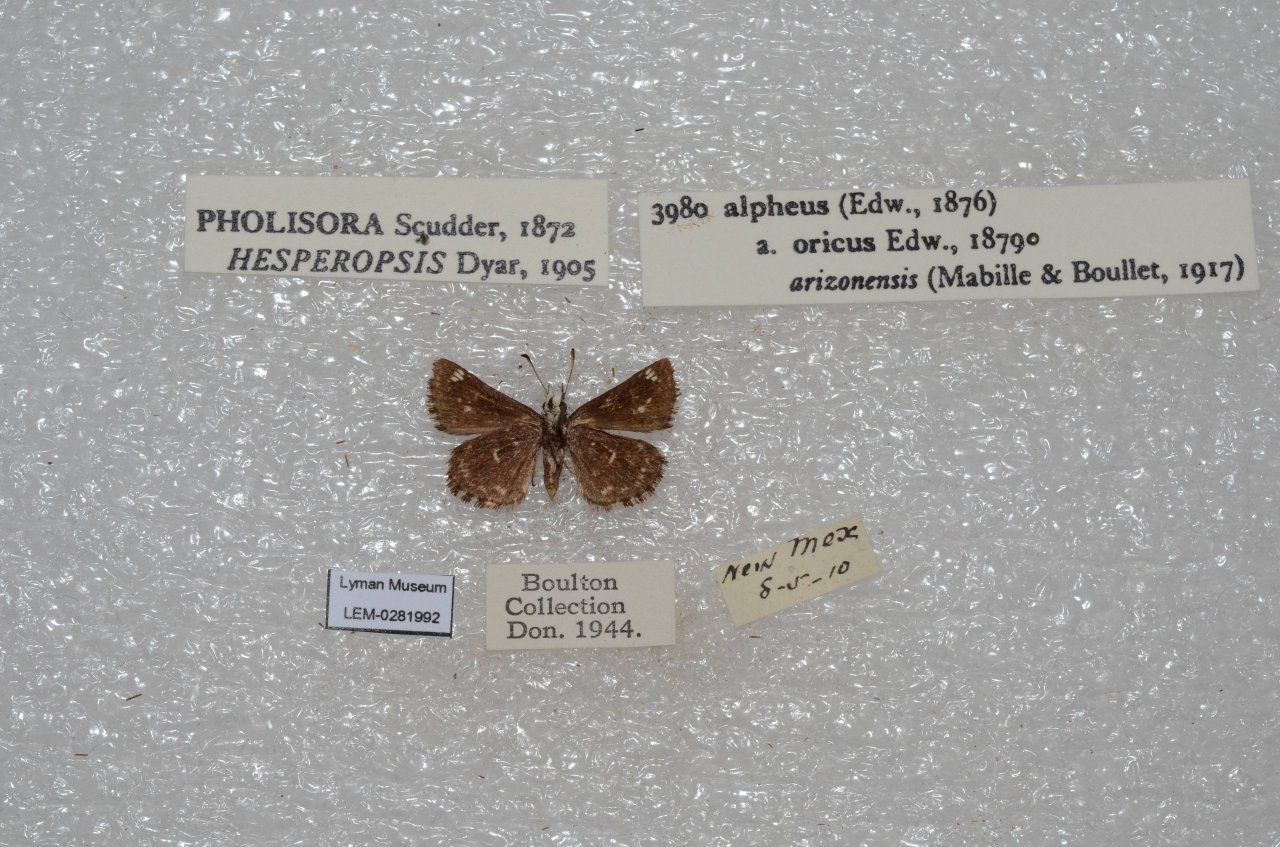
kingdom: Animalia
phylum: Arthropoda
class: Insecta
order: Lepidoptera
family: Hesperiidae
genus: Hesperopsis
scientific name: Hesperopsis alpheus
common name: Saltbush Sootywing
